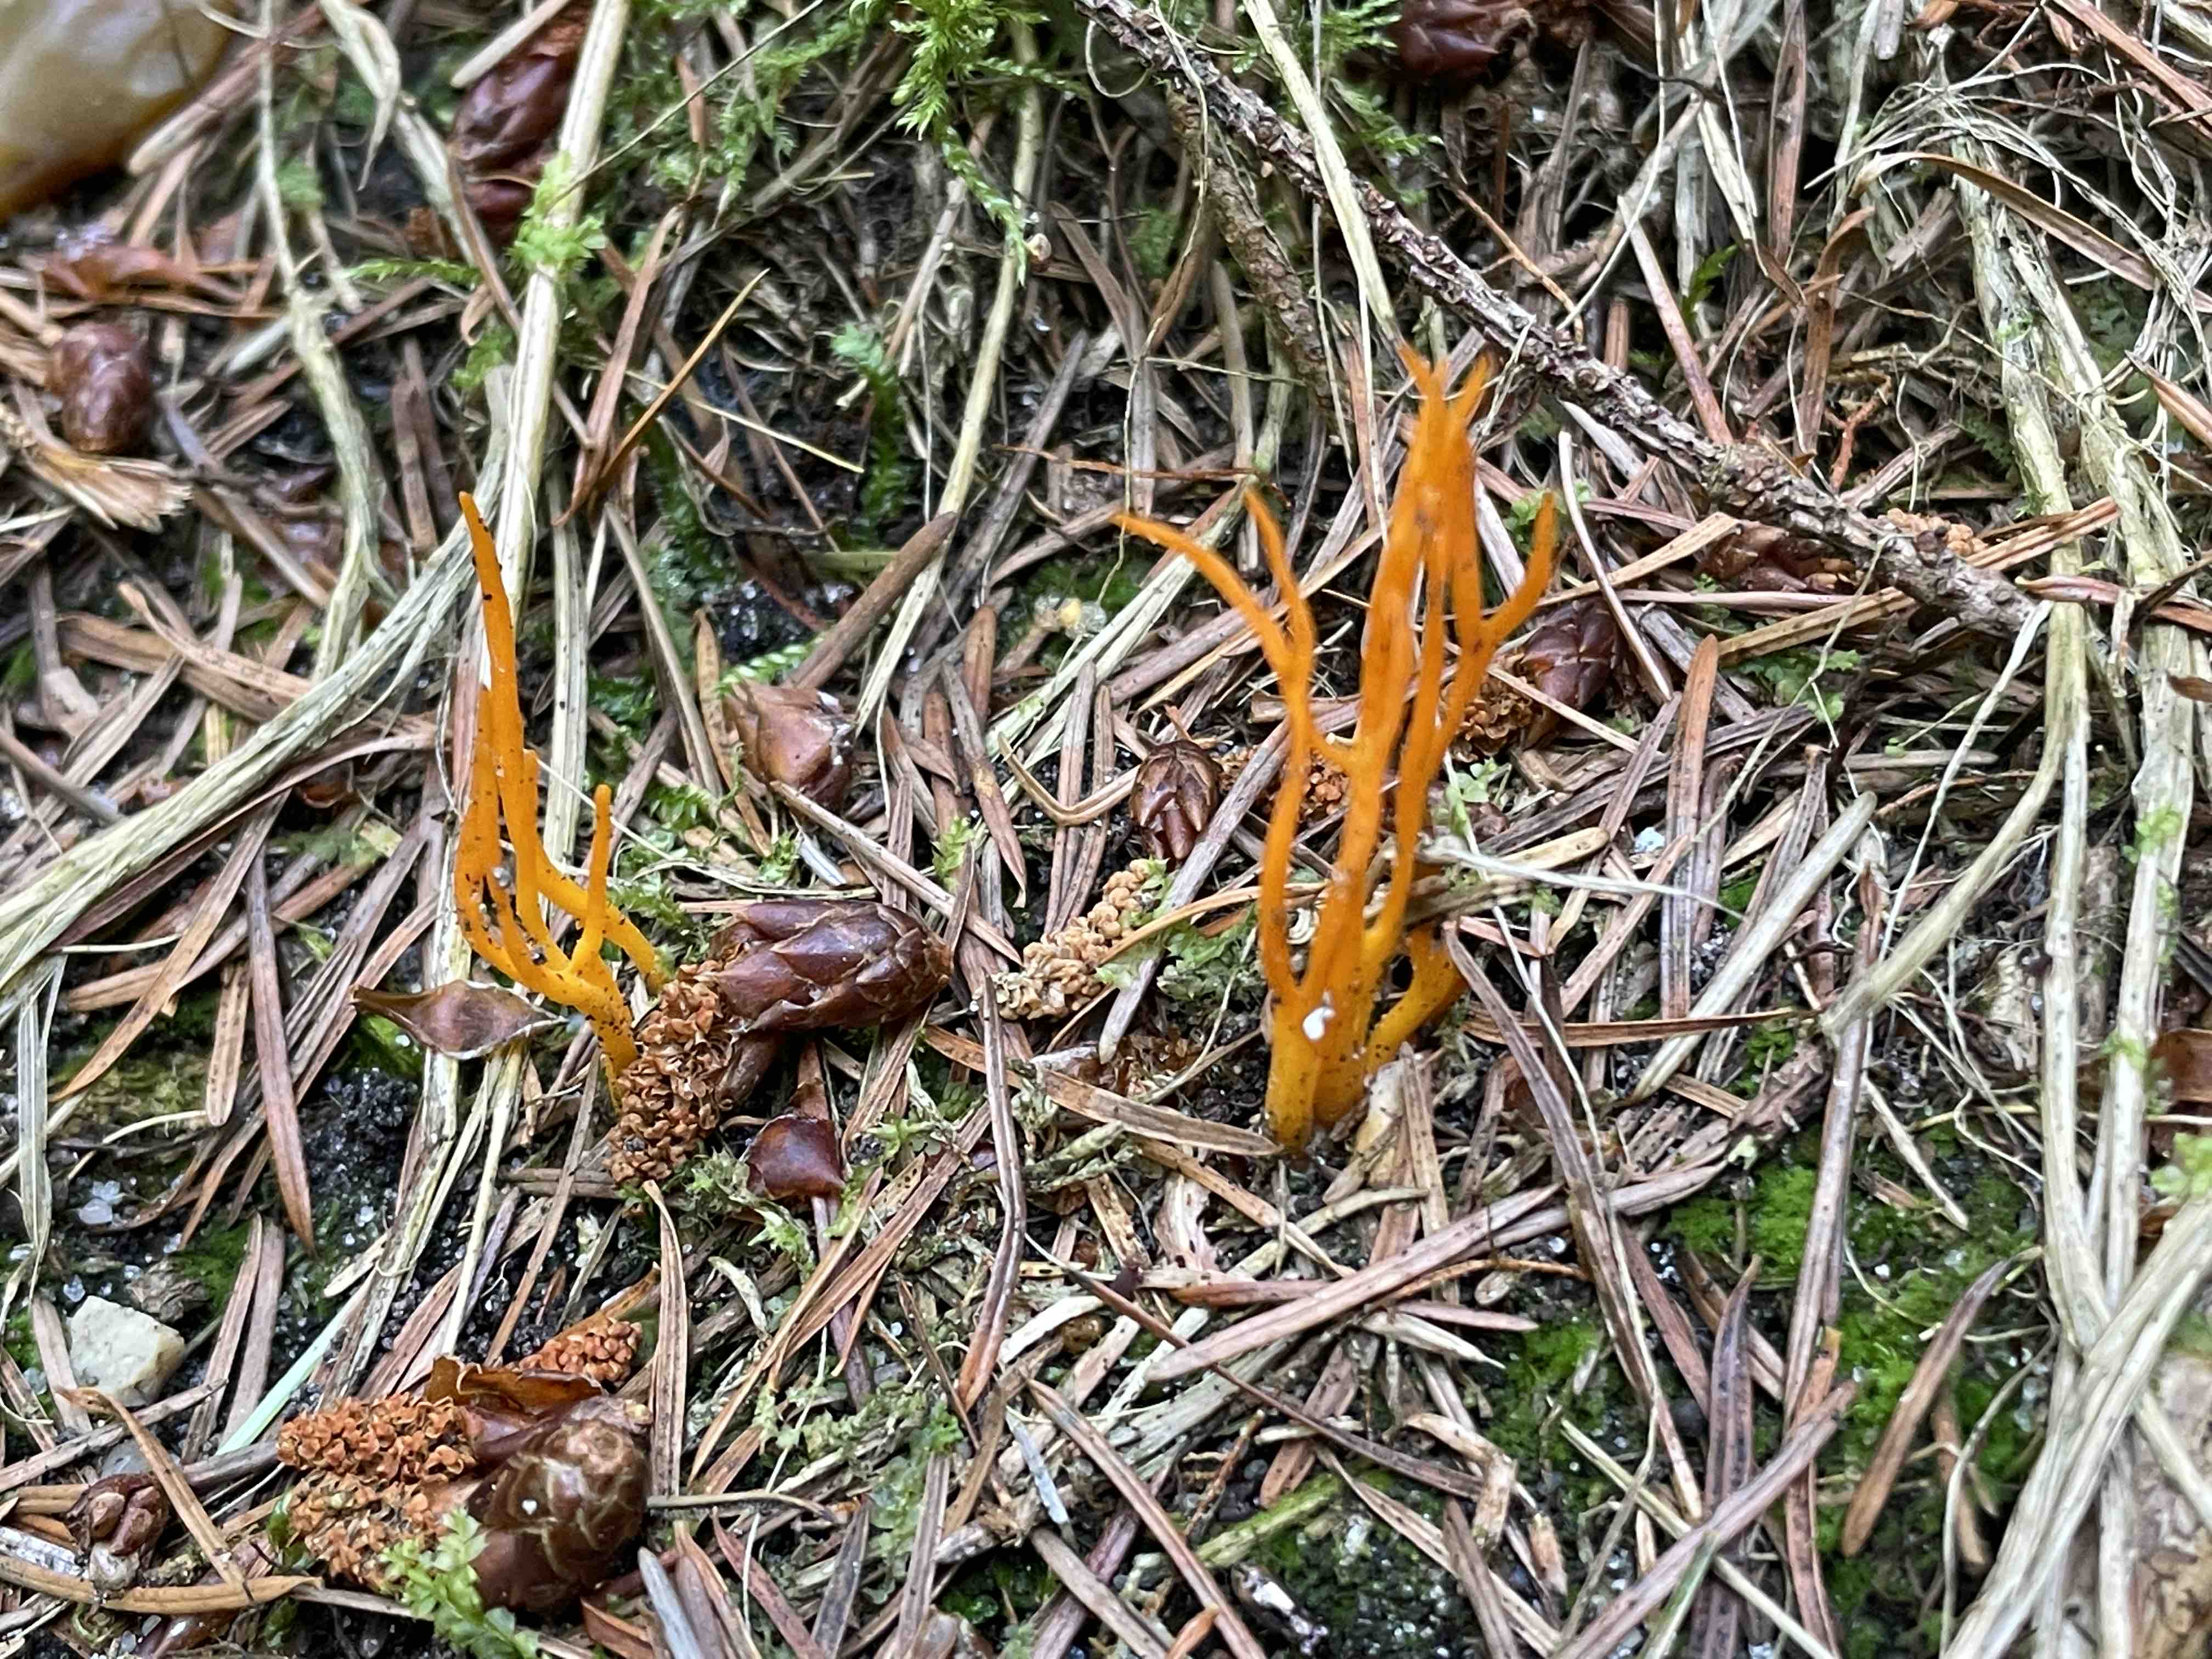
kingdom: Fungi
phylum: Basidiomycota
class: Dacrymycetes
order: Dacrymycetales
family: Dacrymycetaceae
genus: Calocera
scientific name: Calocera viscosa
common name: almindelig guldgaffel
